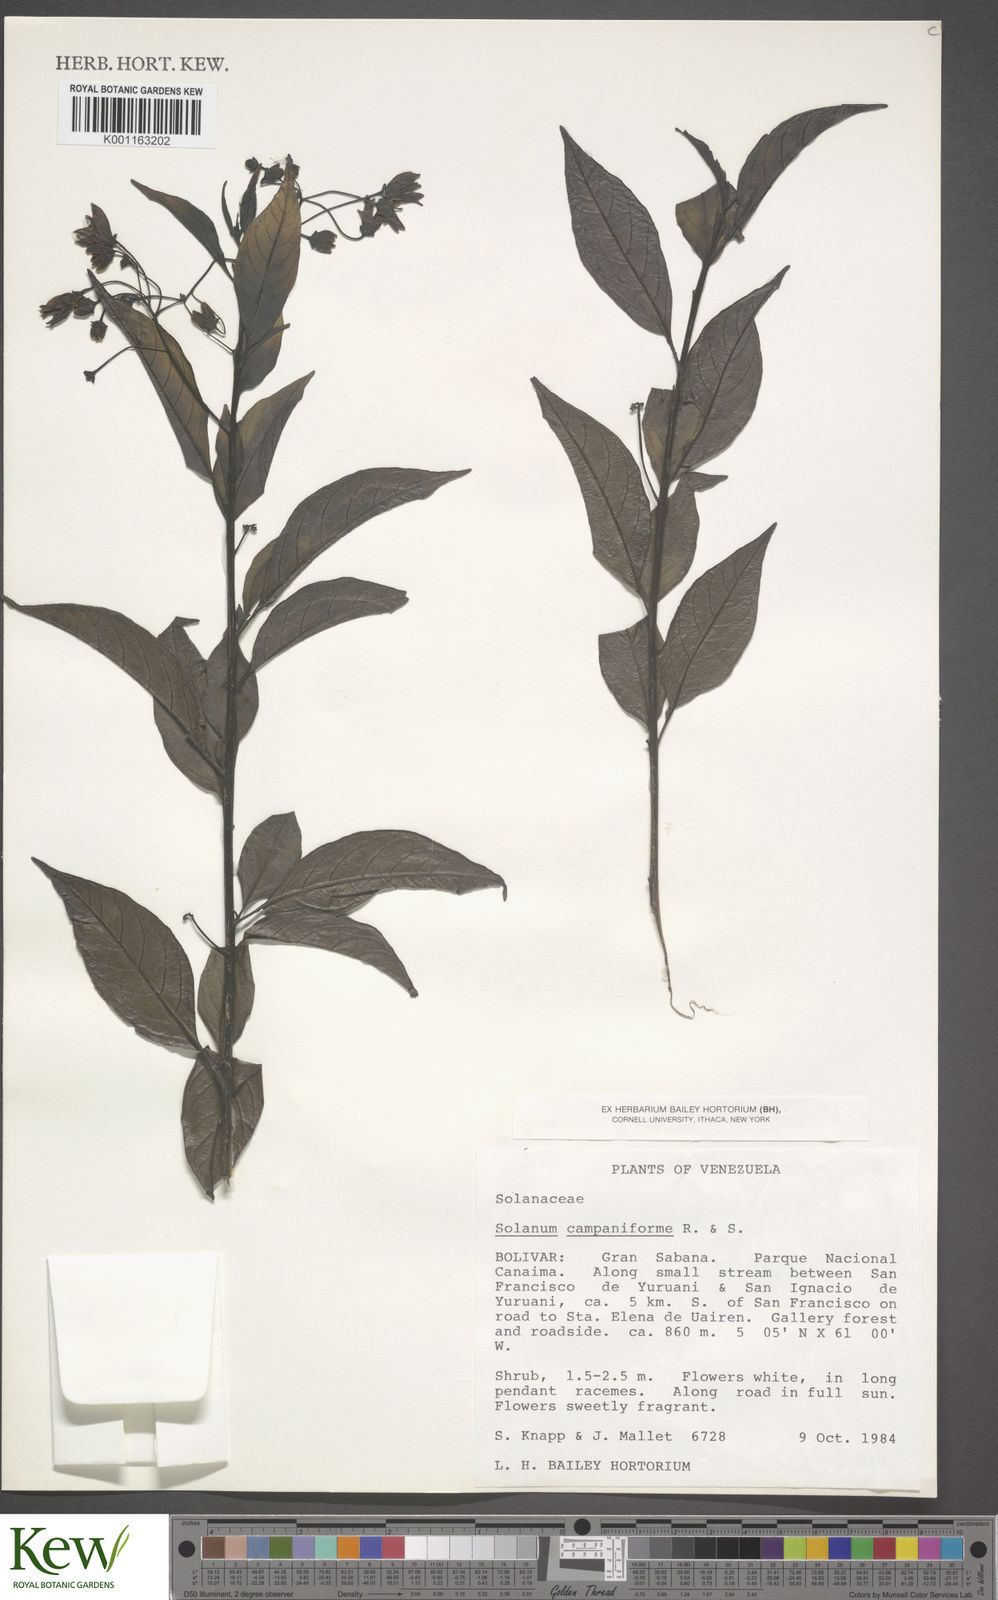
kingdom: Plantae
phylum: Tracheophyta
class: Magnoliopsida
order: Solanales
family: Solanaceae
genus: Solanum
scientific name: Solanum campaniforme
